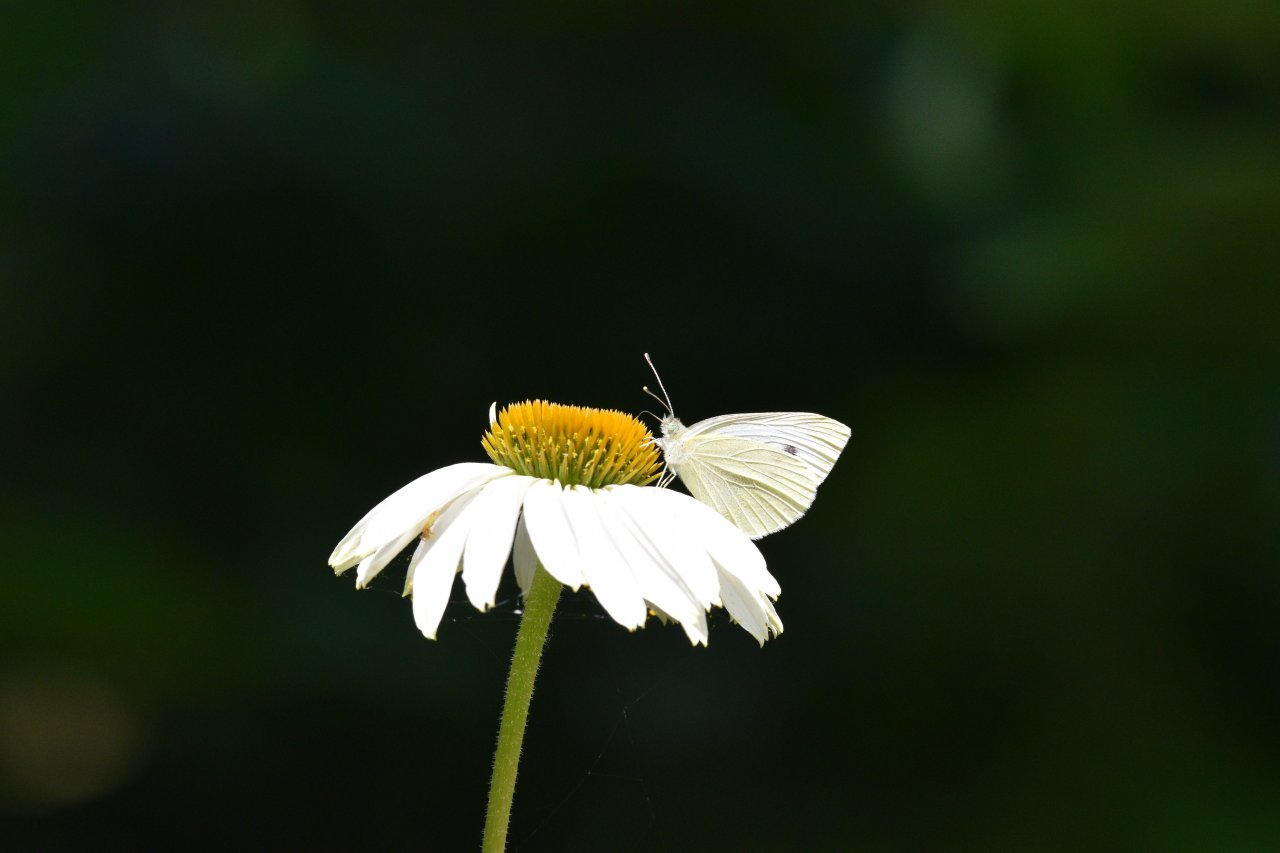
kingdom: Animalia
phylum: Arthropoda
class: Insecta
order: Lepidoptera
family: Pieridae
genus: Pieris
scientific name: Pieris rapae
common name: Cabbage White
